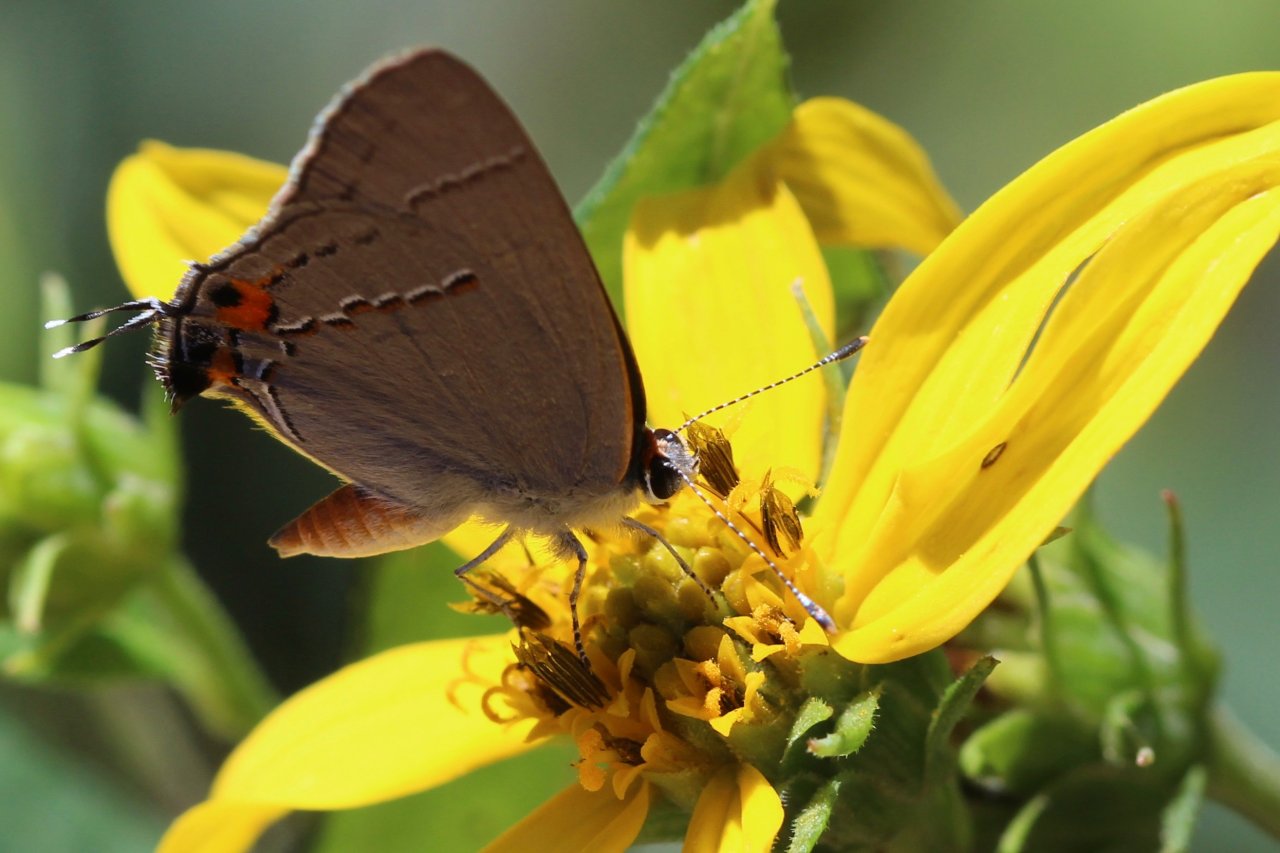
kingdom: Animalia
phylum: Arthropoda
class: Insecta
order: Lepidoptera
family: Lycaenidae
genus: Strymon
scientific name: Strymon melinus
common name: Gray Hairstreak
